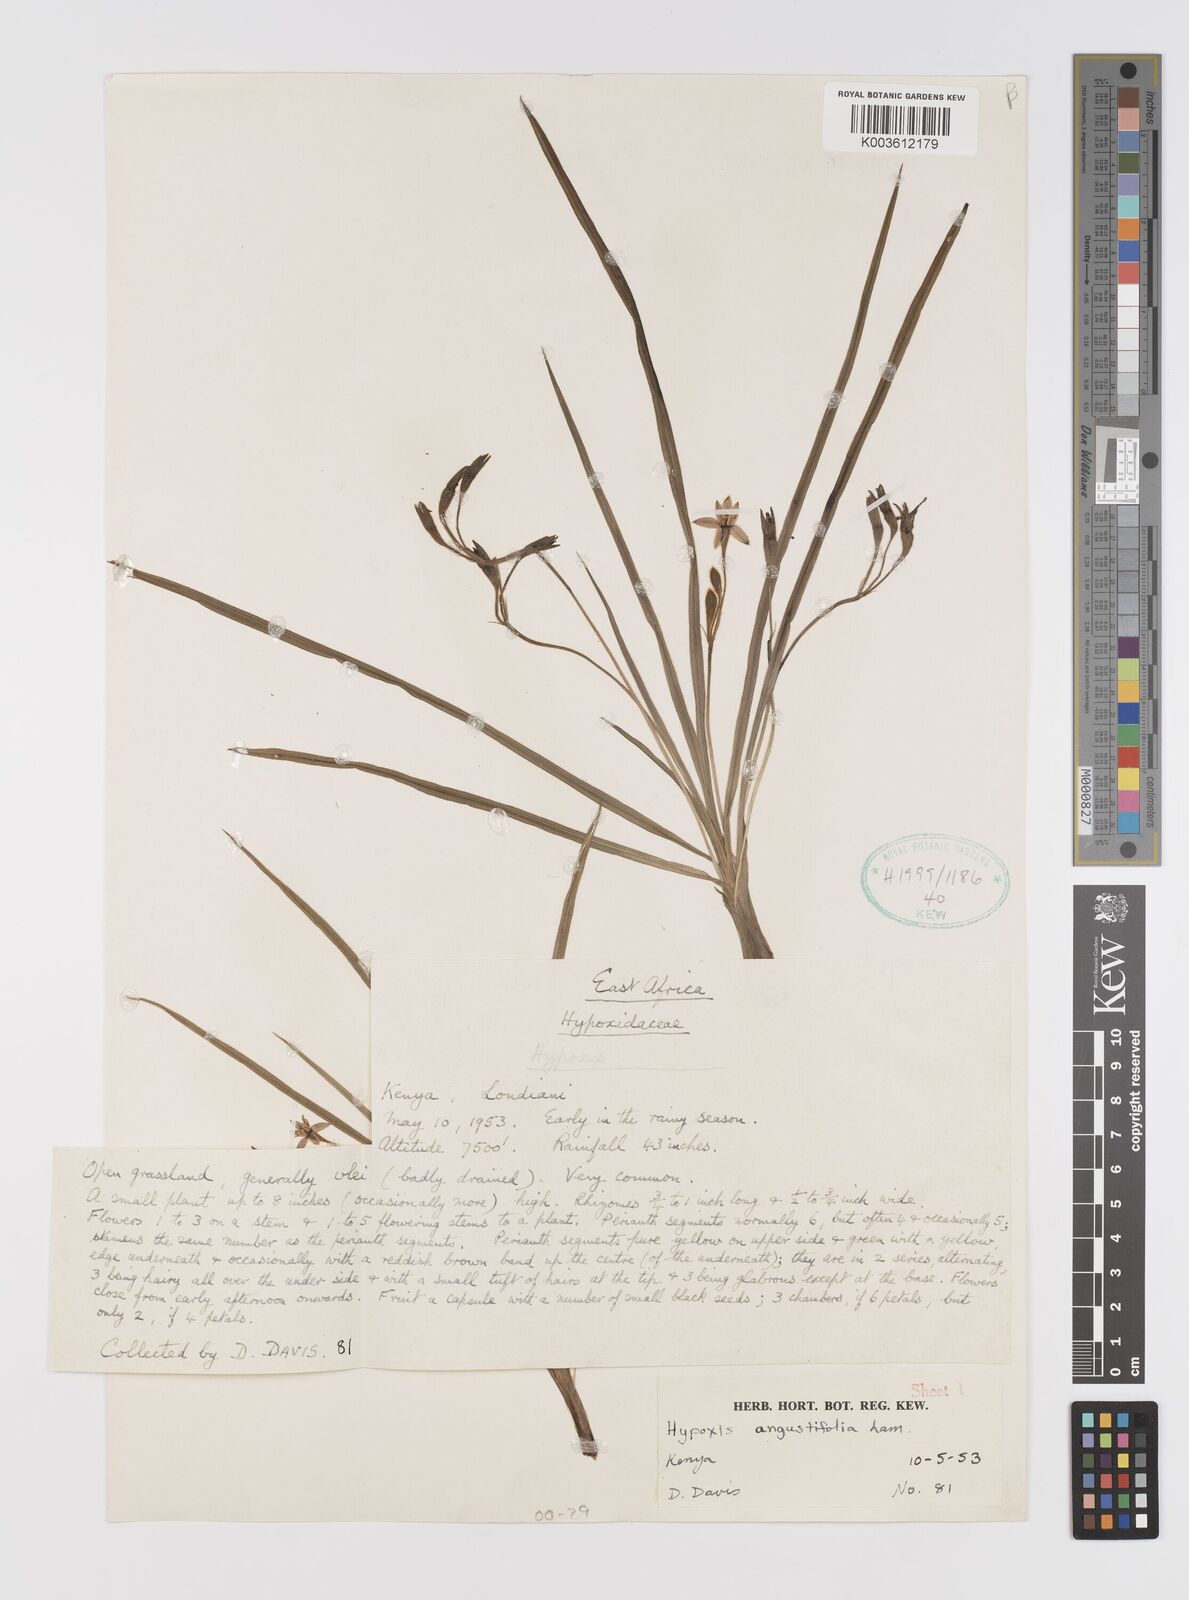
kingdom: Plantae
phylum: Tracheophyta
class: Liliopsida
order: Asparagales
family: Hypoxidaceae
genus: Hypoxis
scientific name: Hypoxis schimperi
